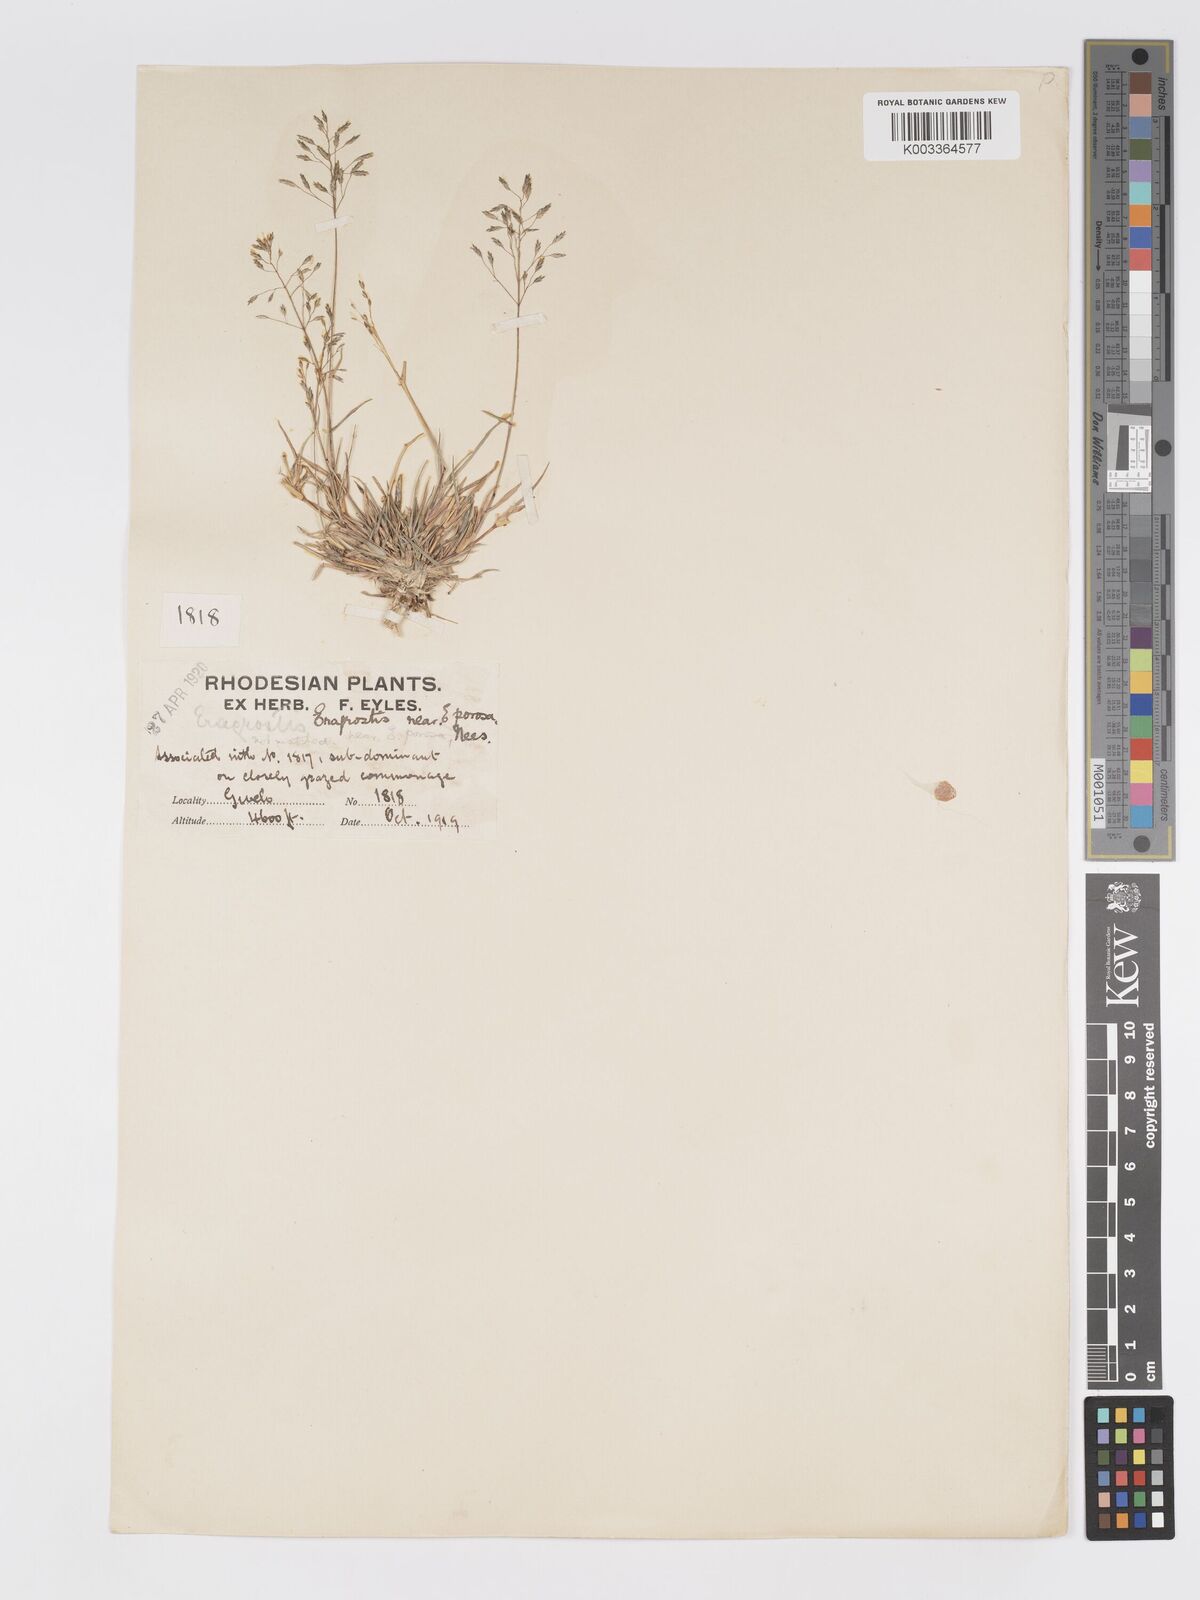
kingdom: Plantae
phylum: Tracheophyta
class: Liliopsida
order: Poales
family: Poaceae
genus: Eragrostis
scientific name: Eragrostis patentipilosa
